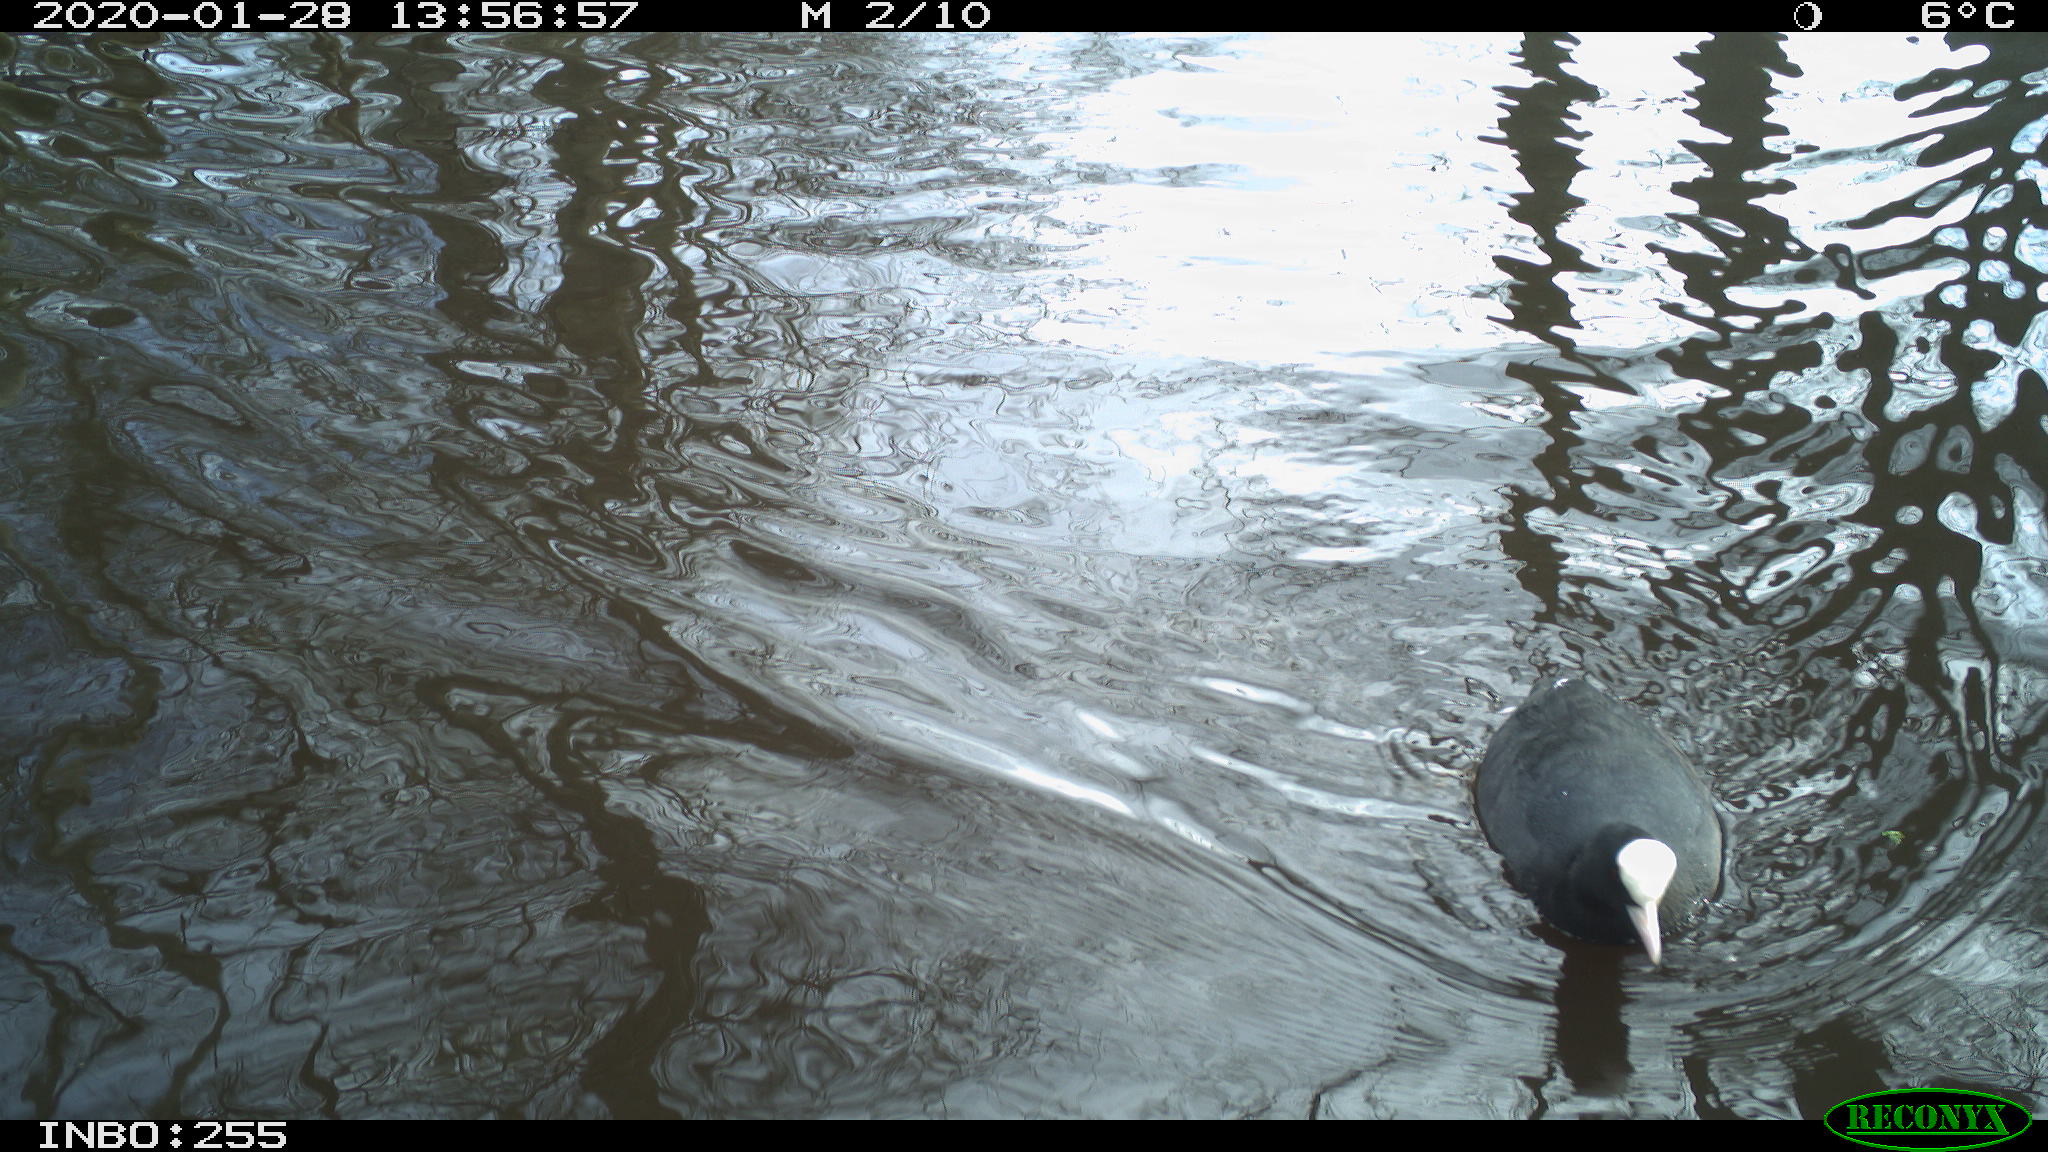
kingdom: Animalia
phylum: Chordata
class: Aves
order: Gruiformes
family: Rallidae
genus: Fulica
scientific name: Fulica atra
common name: Eurasian coot
